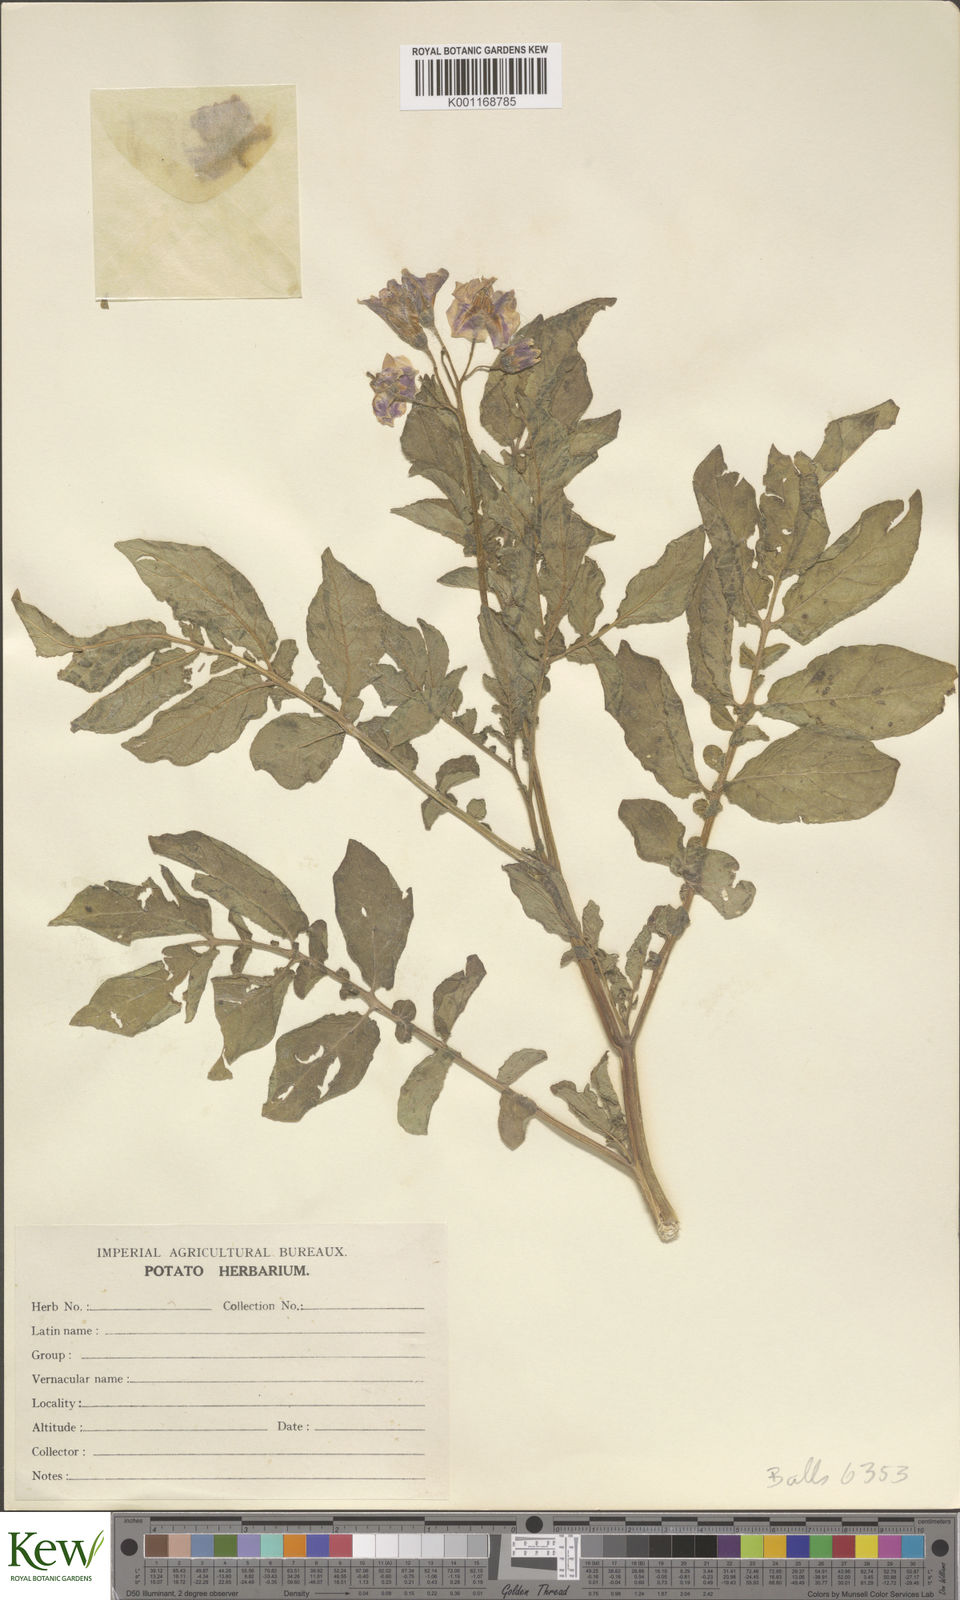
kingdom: Plantae
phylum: Tracheophyta
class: Magnoliopsida
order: Solanales
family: Solanaceae
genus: Solanum
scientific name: Solanum chaucha
